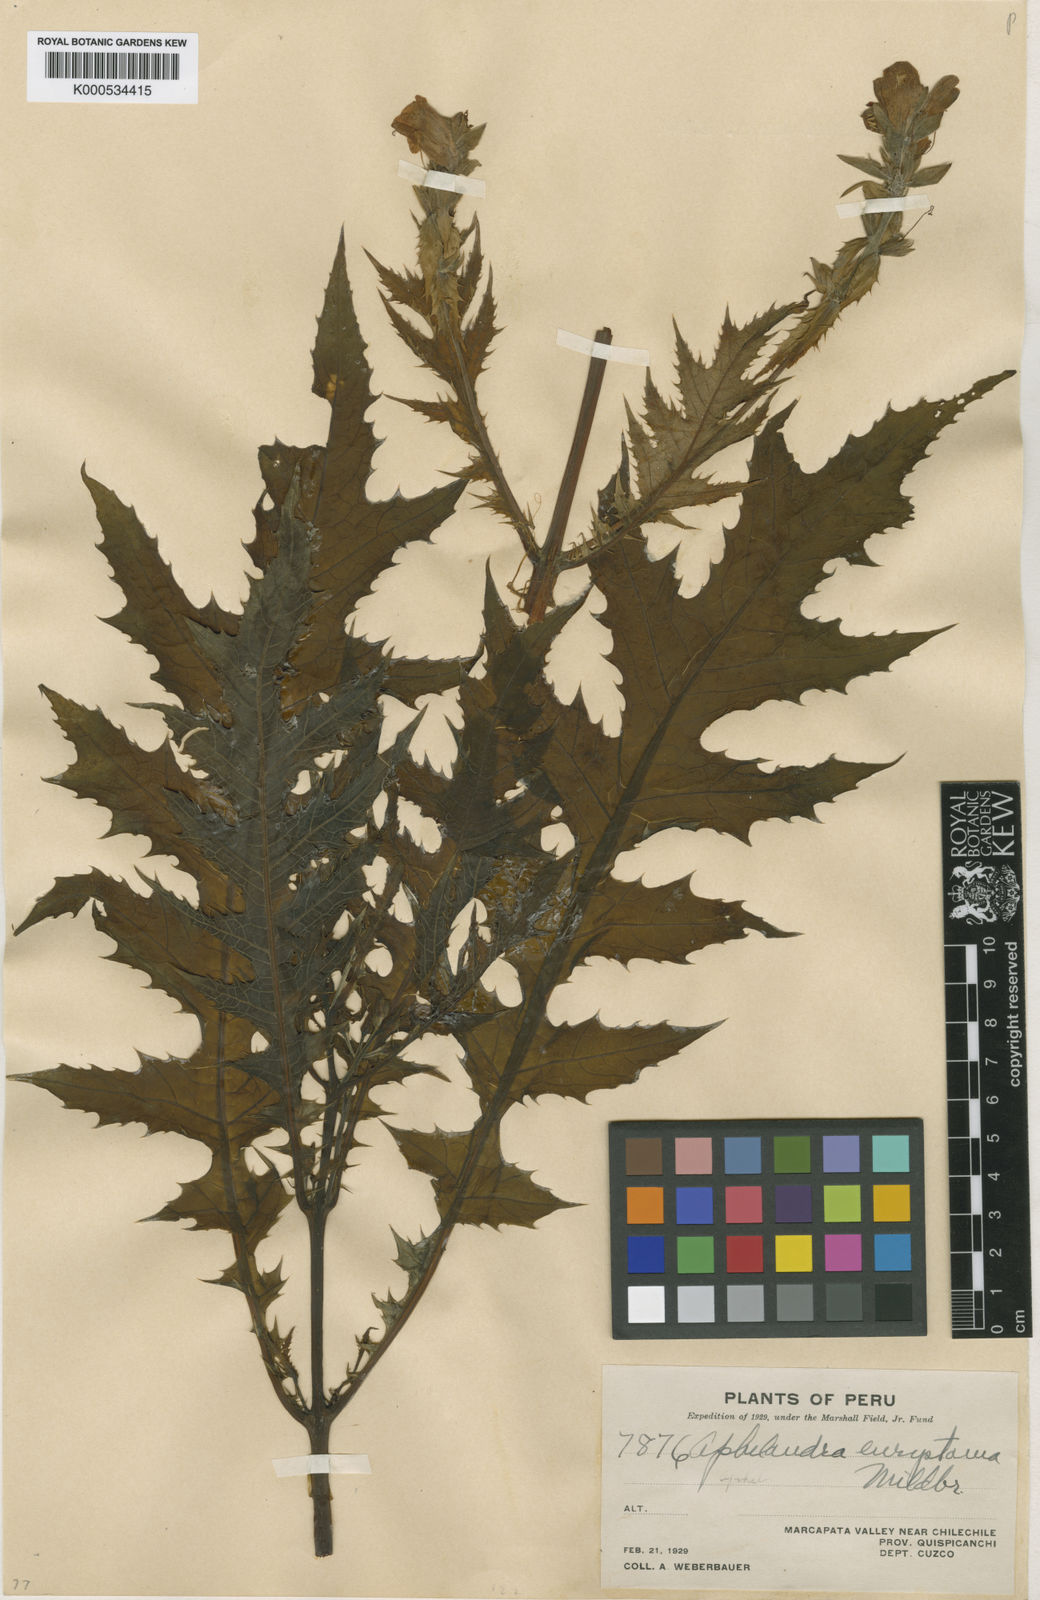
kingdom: Plantae
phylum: Tracheophyta
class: Magnoliopsida
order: Lamiales
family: Acanthaceae
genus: Aphelandra
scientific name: Aphelandra eurystoma
